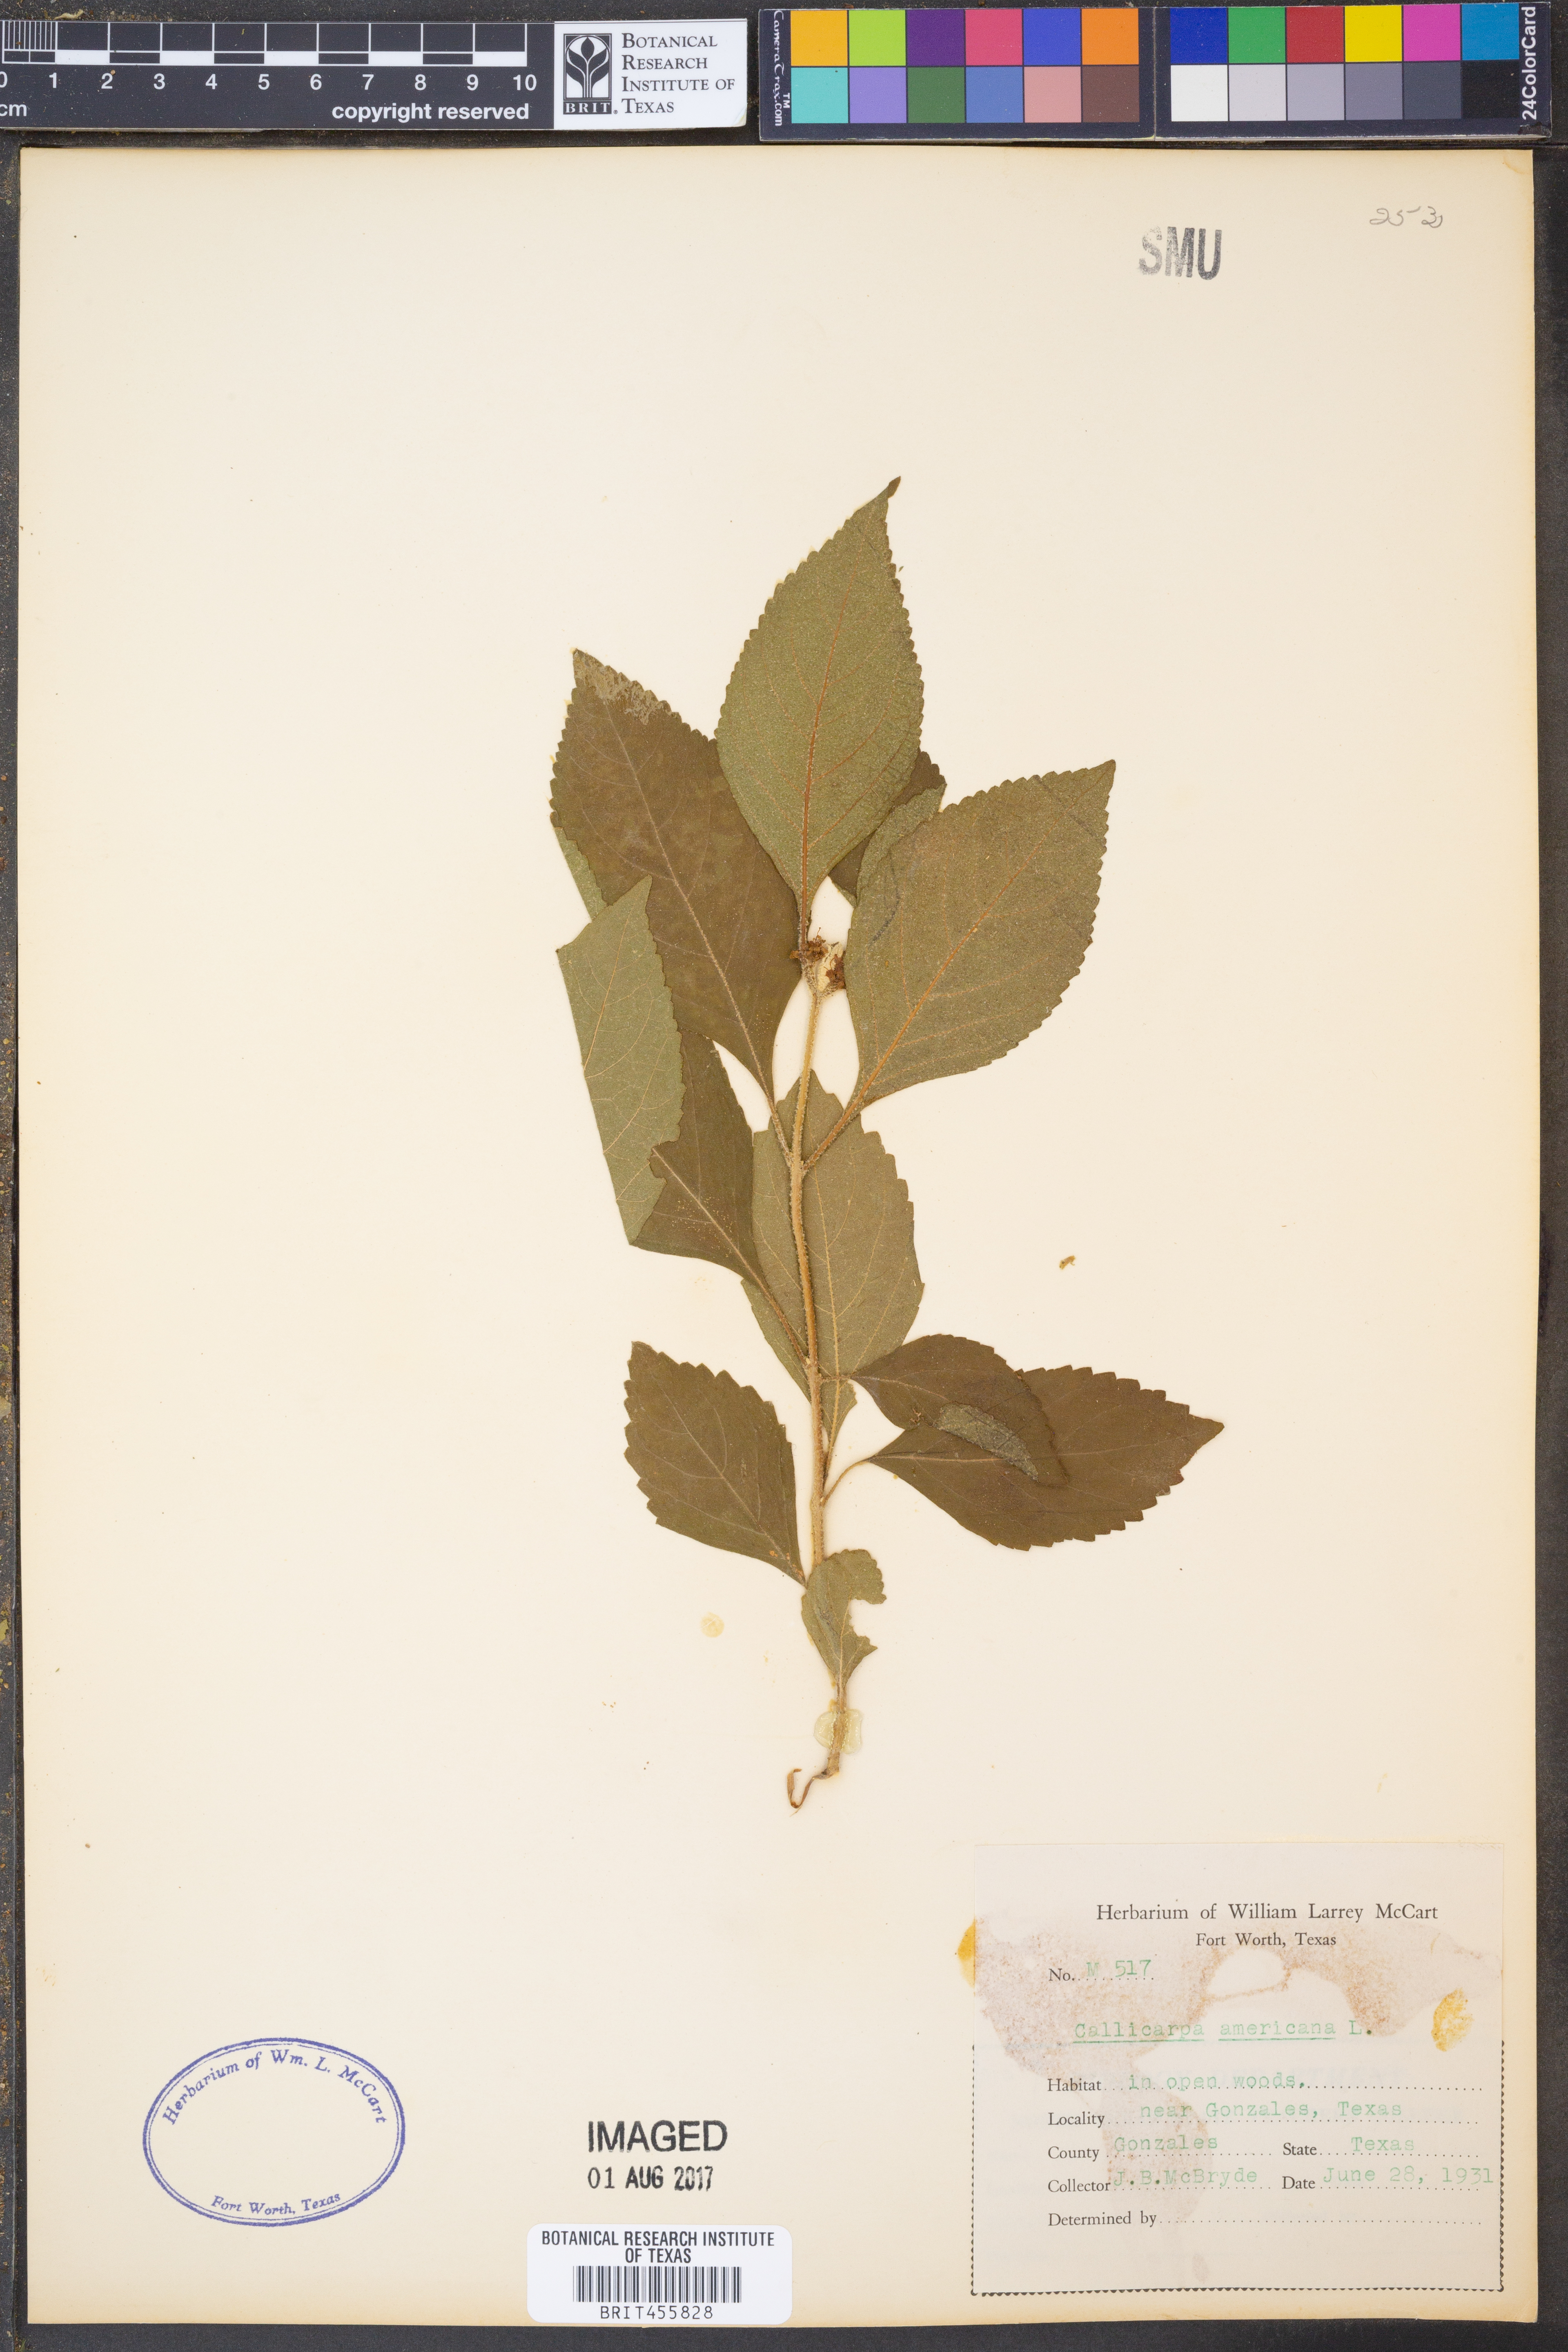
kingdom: Plantae
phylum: Tracheophyta
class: Magnoliopsida
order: Lamiales
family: Lamiaceae
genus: Callicarpa
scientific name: Callicarpa americana
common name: American beautyberry
